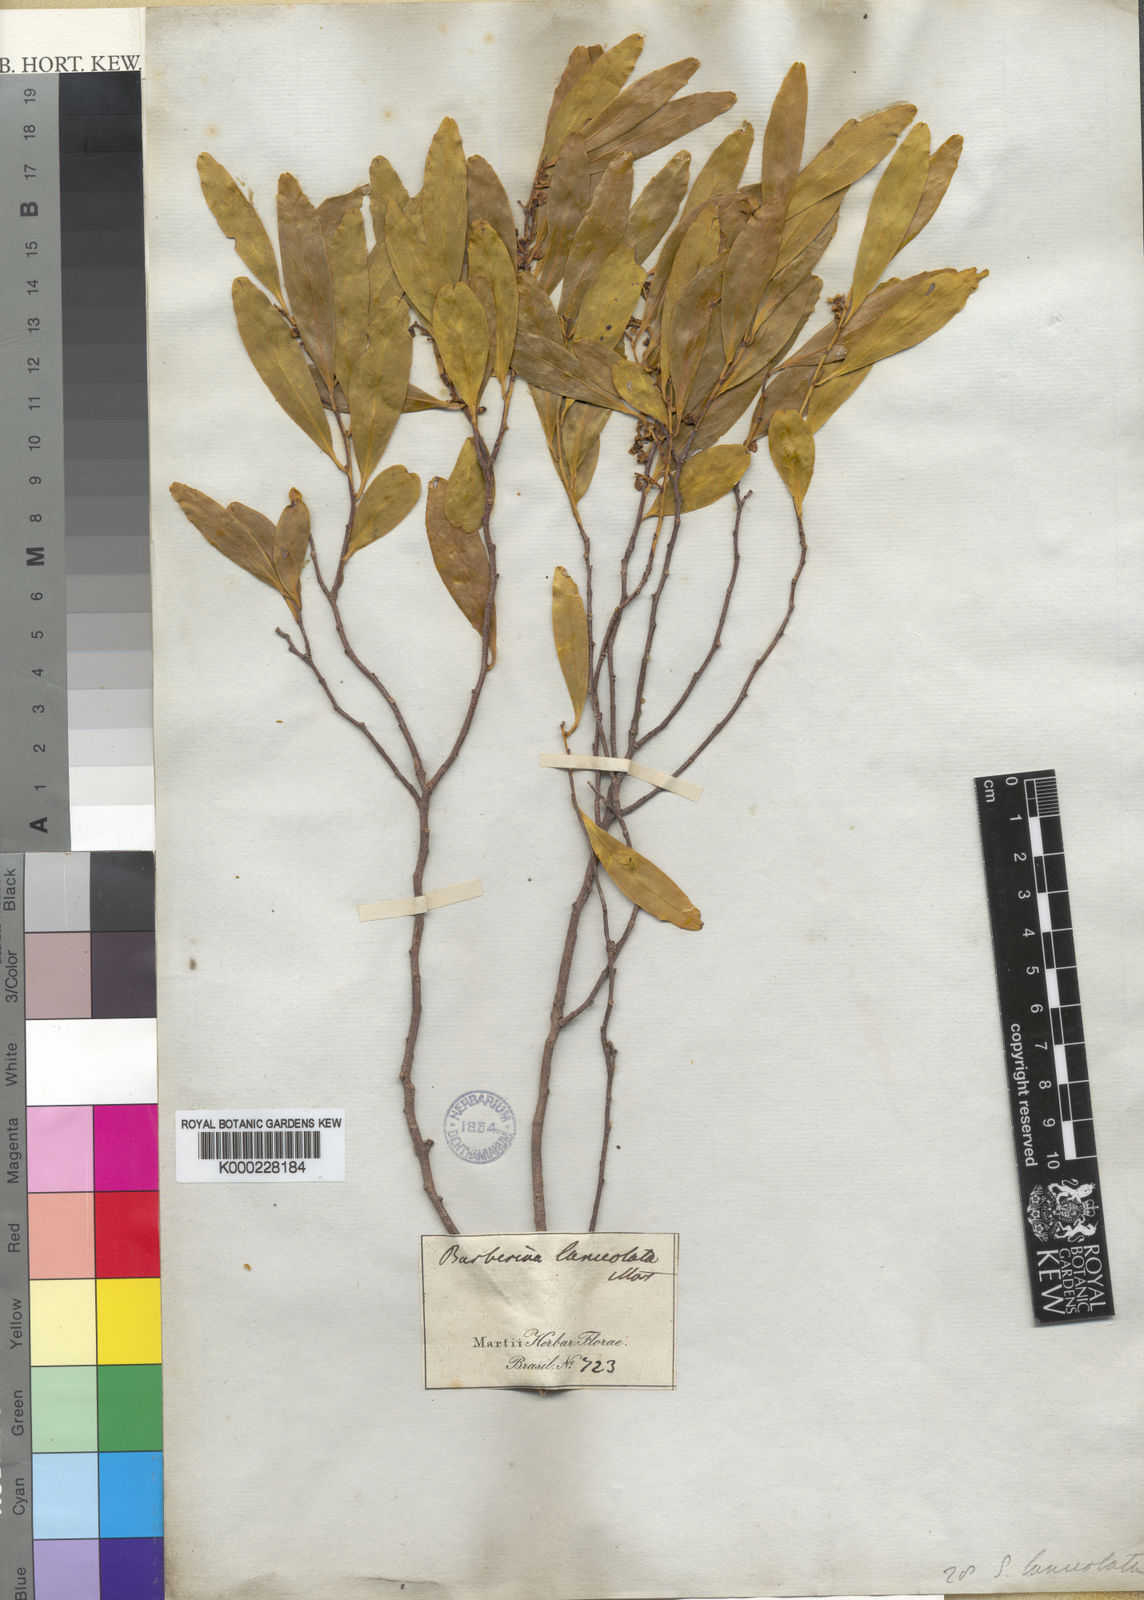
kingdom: Plantae
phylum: Tracheophyta
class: Magnoliopsida
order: Ericales
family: Symplocaceae
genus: Symplocos
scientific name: Symplocos oblongifolia
